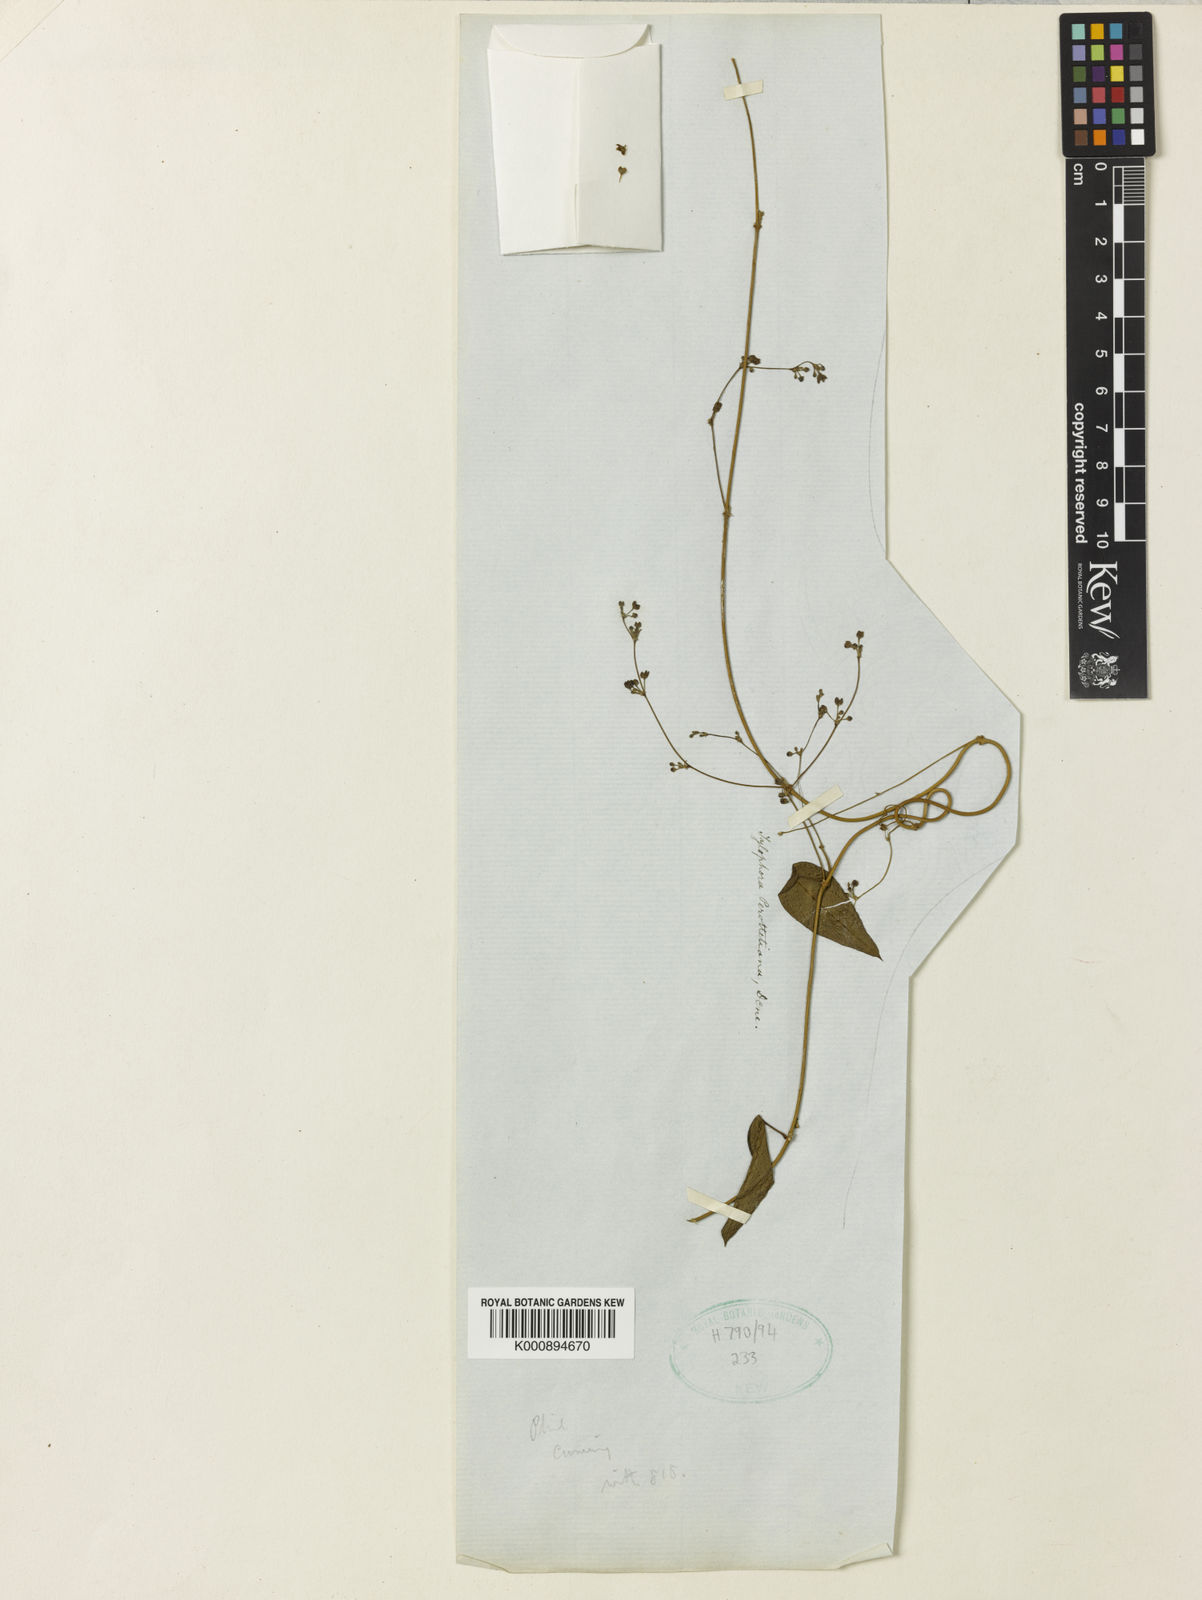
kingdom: Plantae
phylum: Tracheophyta
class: Magnoliopsida
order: Gentianales
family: Apocynaceae
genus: Vincetoxicum
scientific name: Vincetoxicum flexuosum
